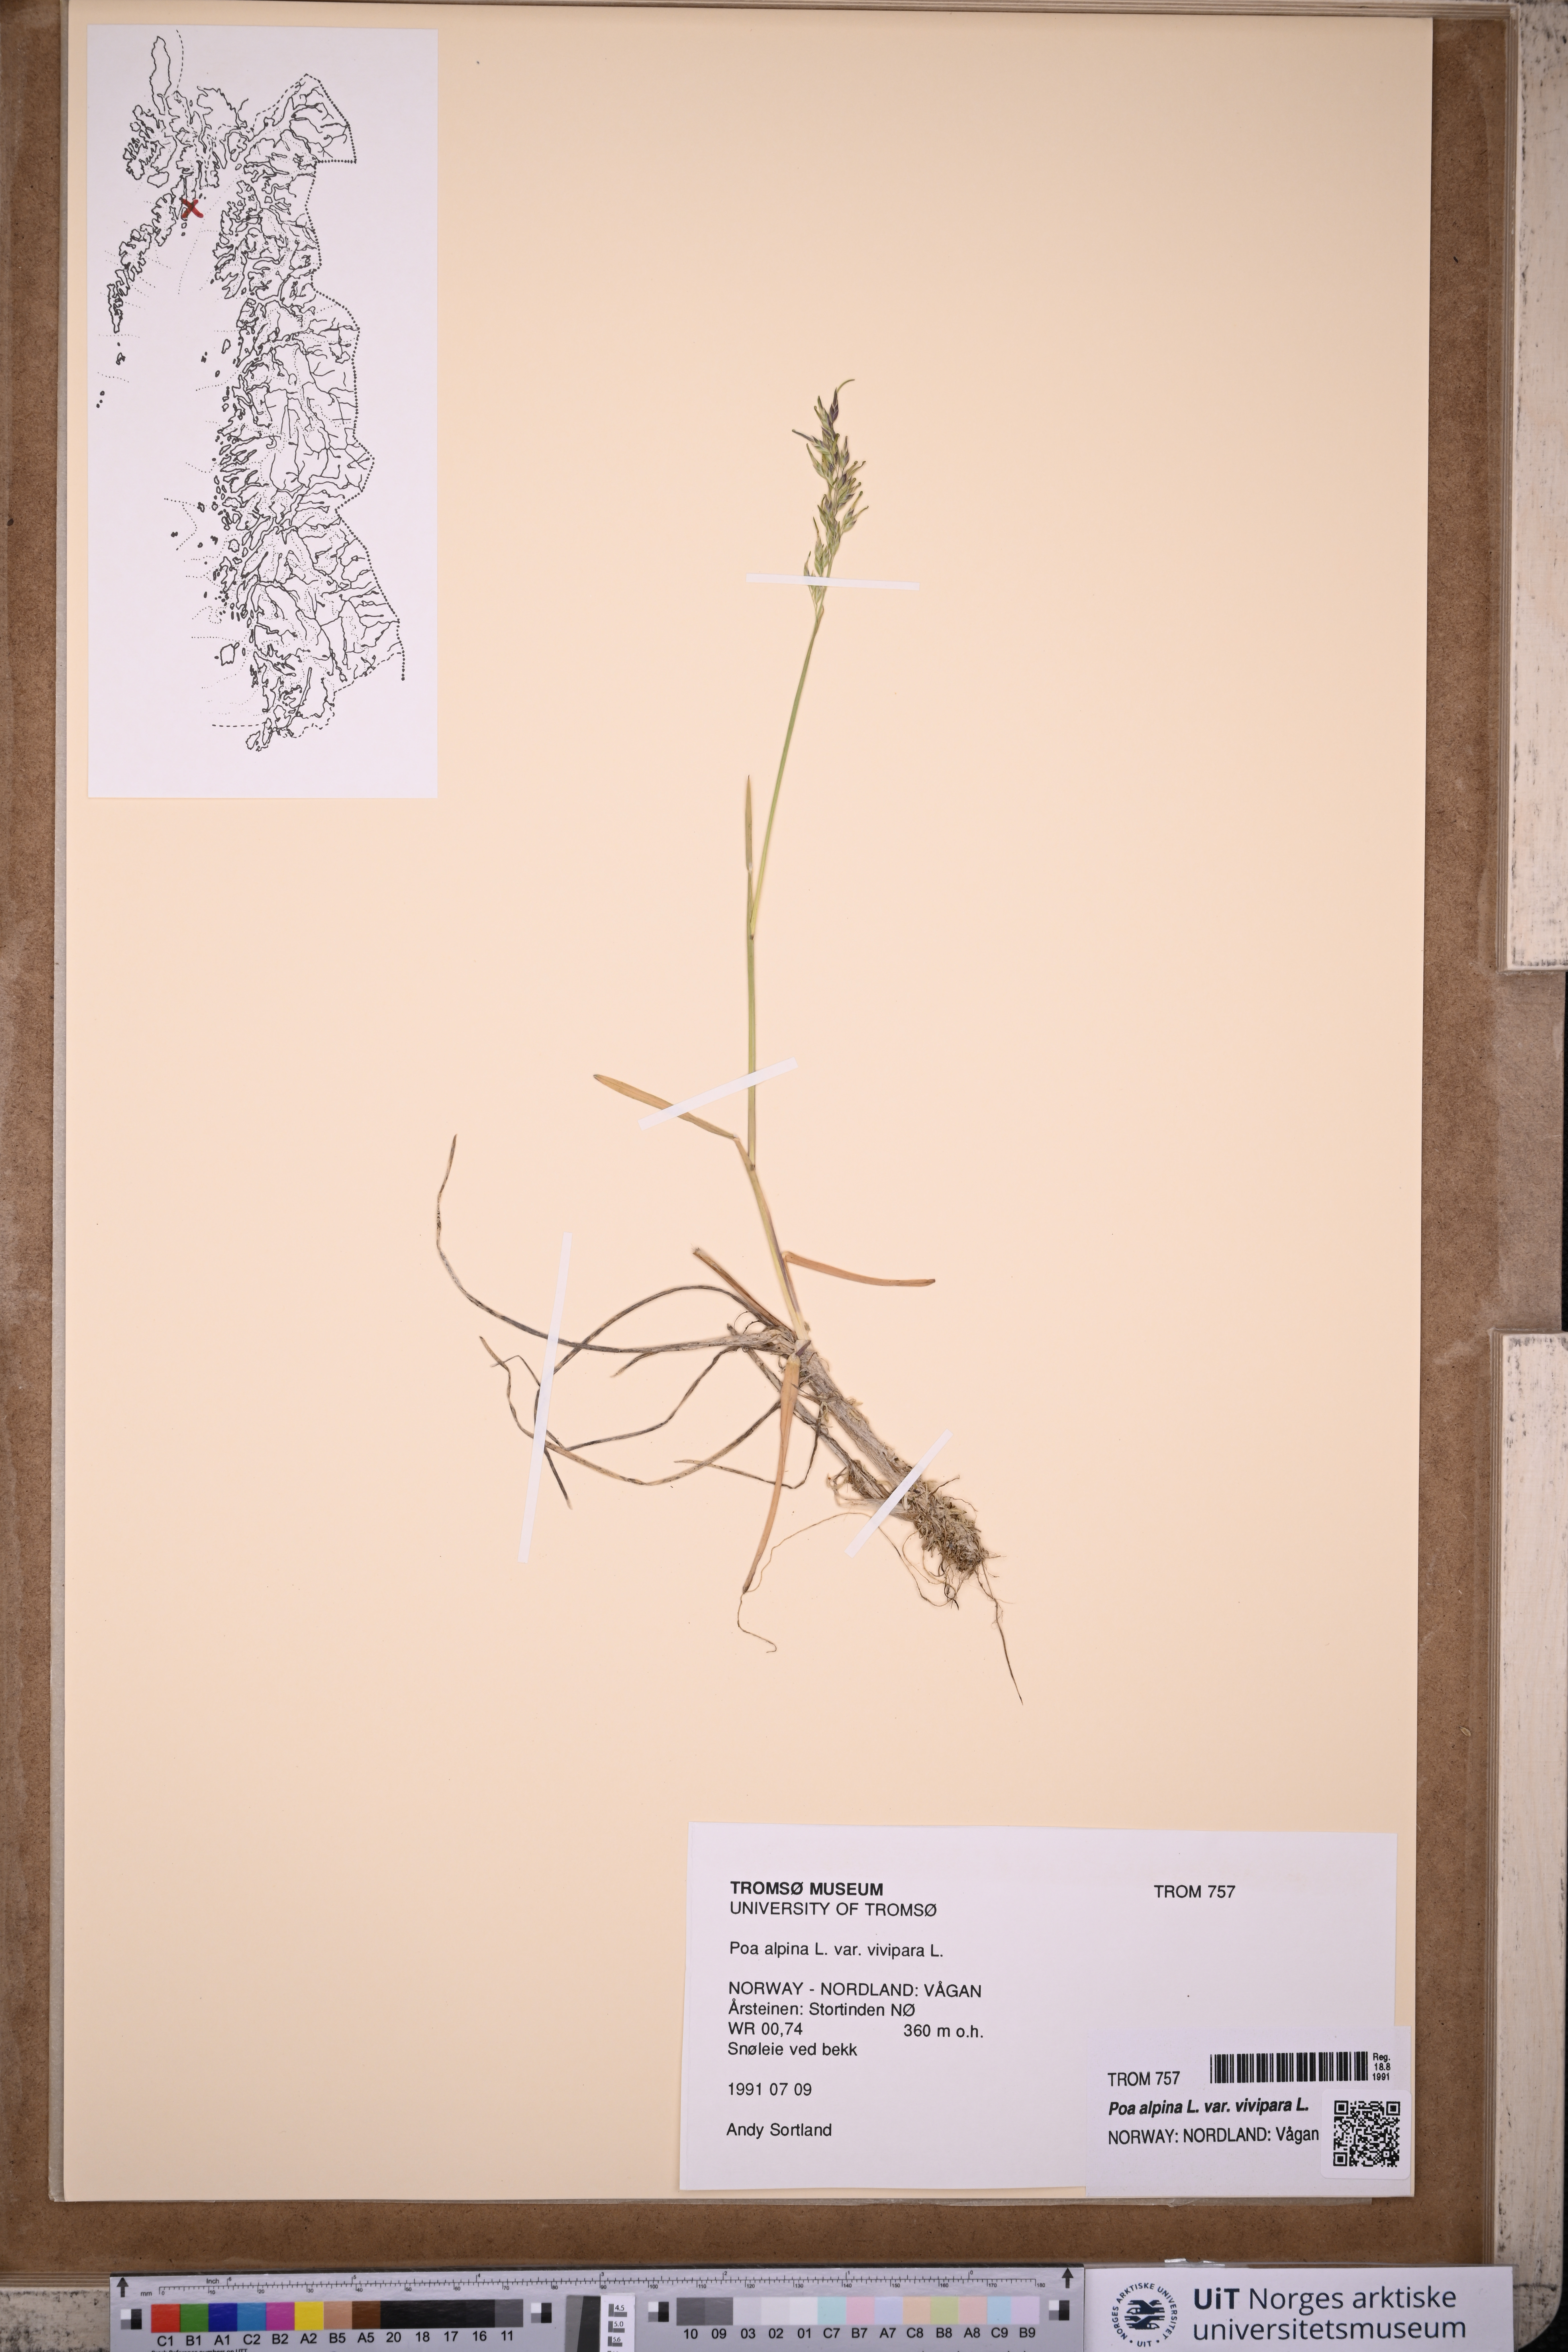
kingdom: Plantae
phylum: Tracheophyta
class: Liliopsida
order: Poales
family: Poaceae
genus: Poa
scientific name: Poa alpina
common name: Alpine bluegrass
